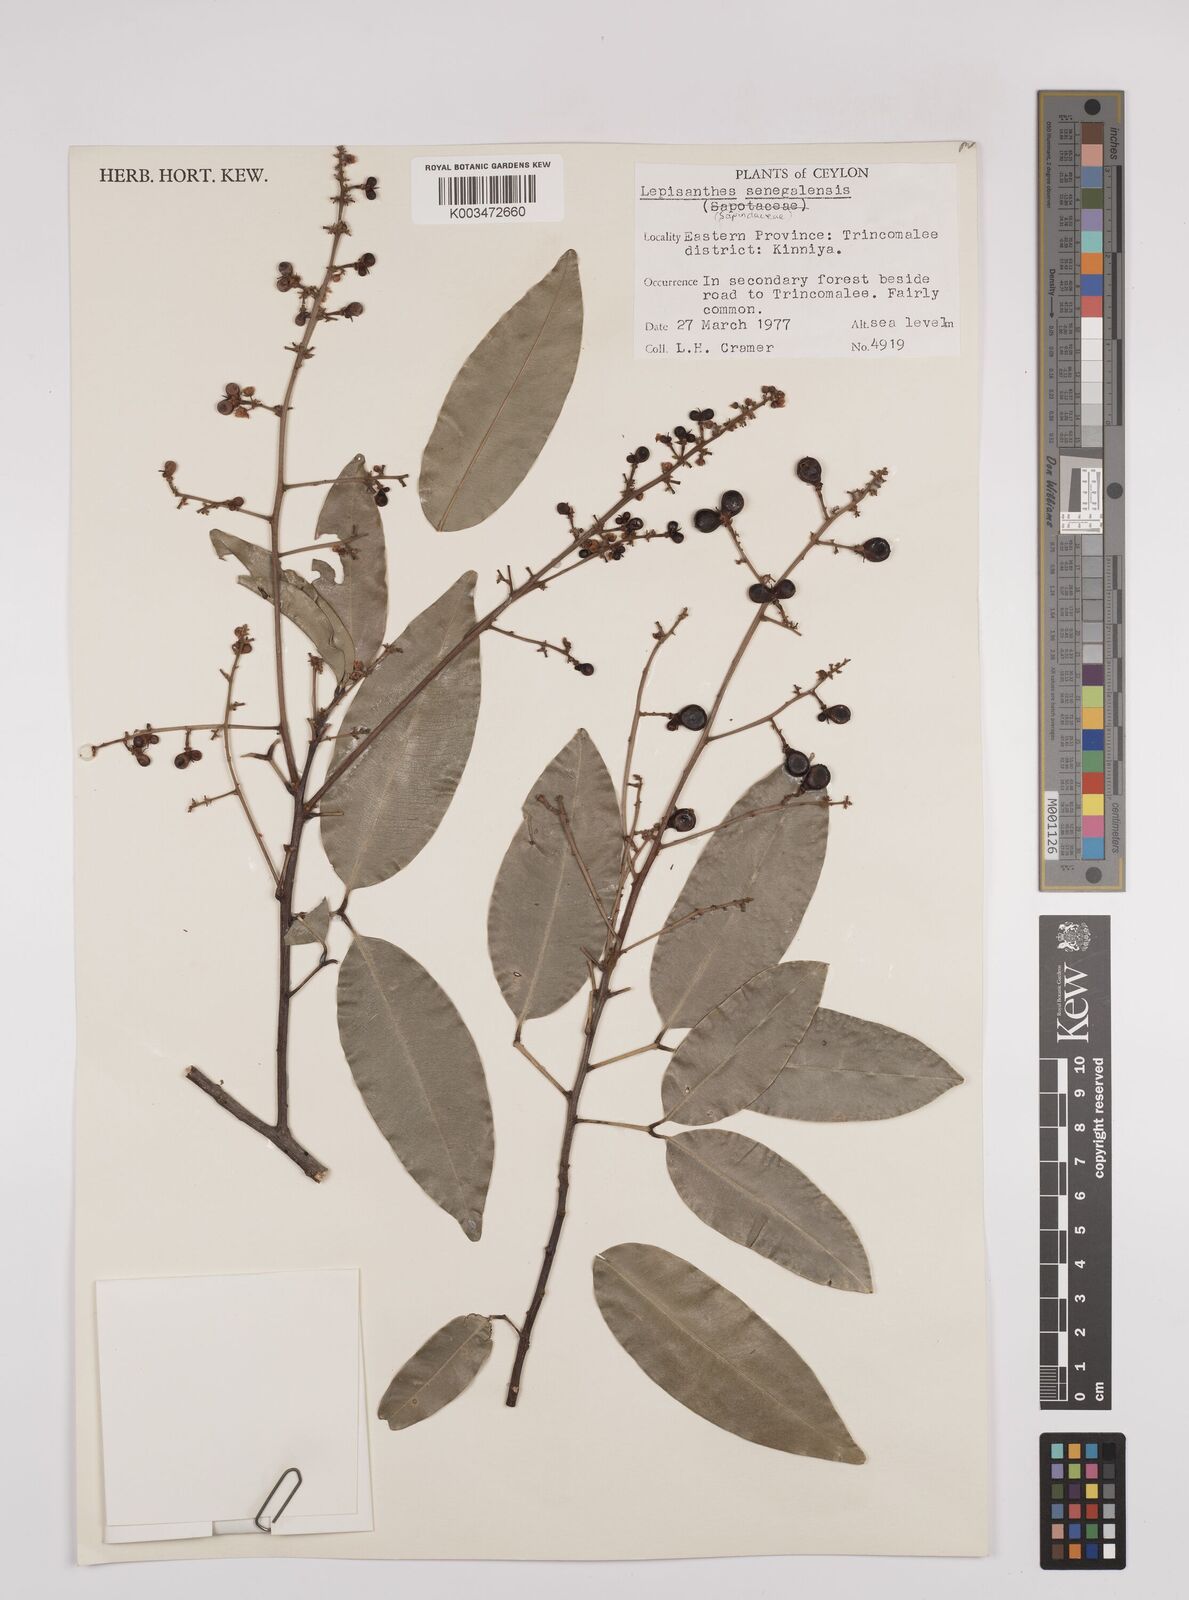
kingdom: Plantae
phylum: Tracheophyta
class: Magnoliopsida
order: Sapindales
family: Sapindaceae
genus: Lepisanthes
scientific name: Lepisanthes senegalensis
